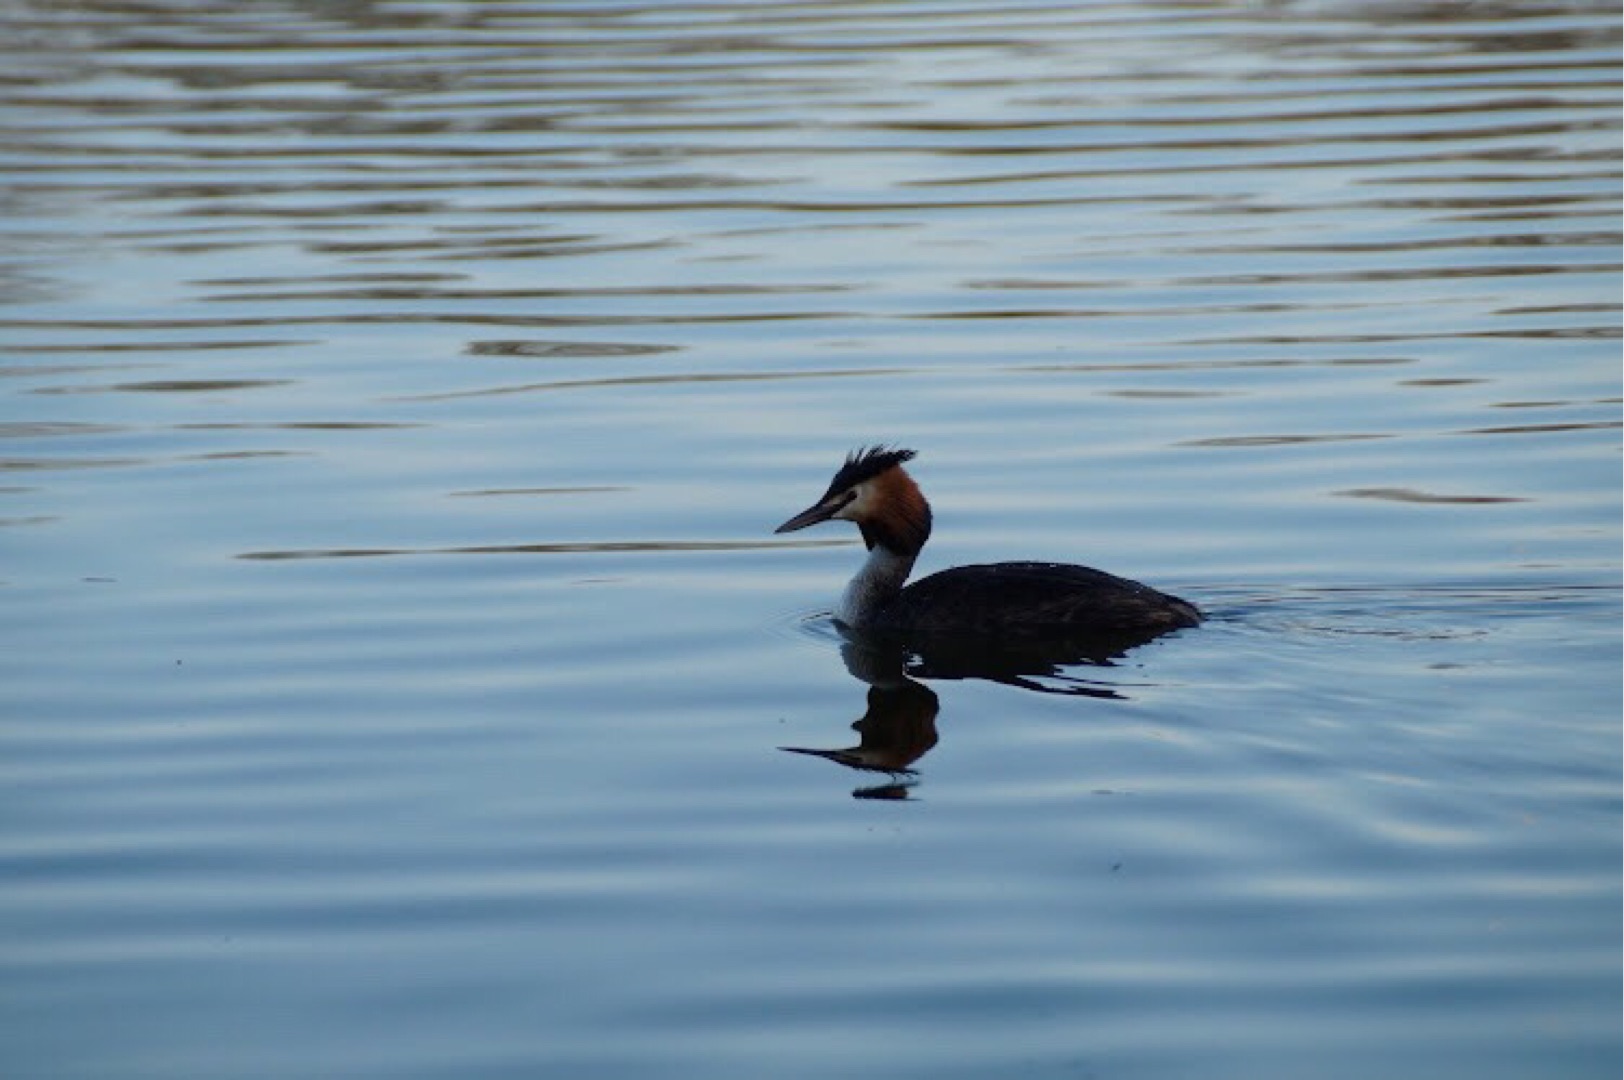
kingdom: Animalia
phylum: Chordata
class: Aves
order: Podicipediformes
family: Podicipedidae
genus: Podiceps
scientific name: Podiceps cristatus
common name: Toppet lappedykker
